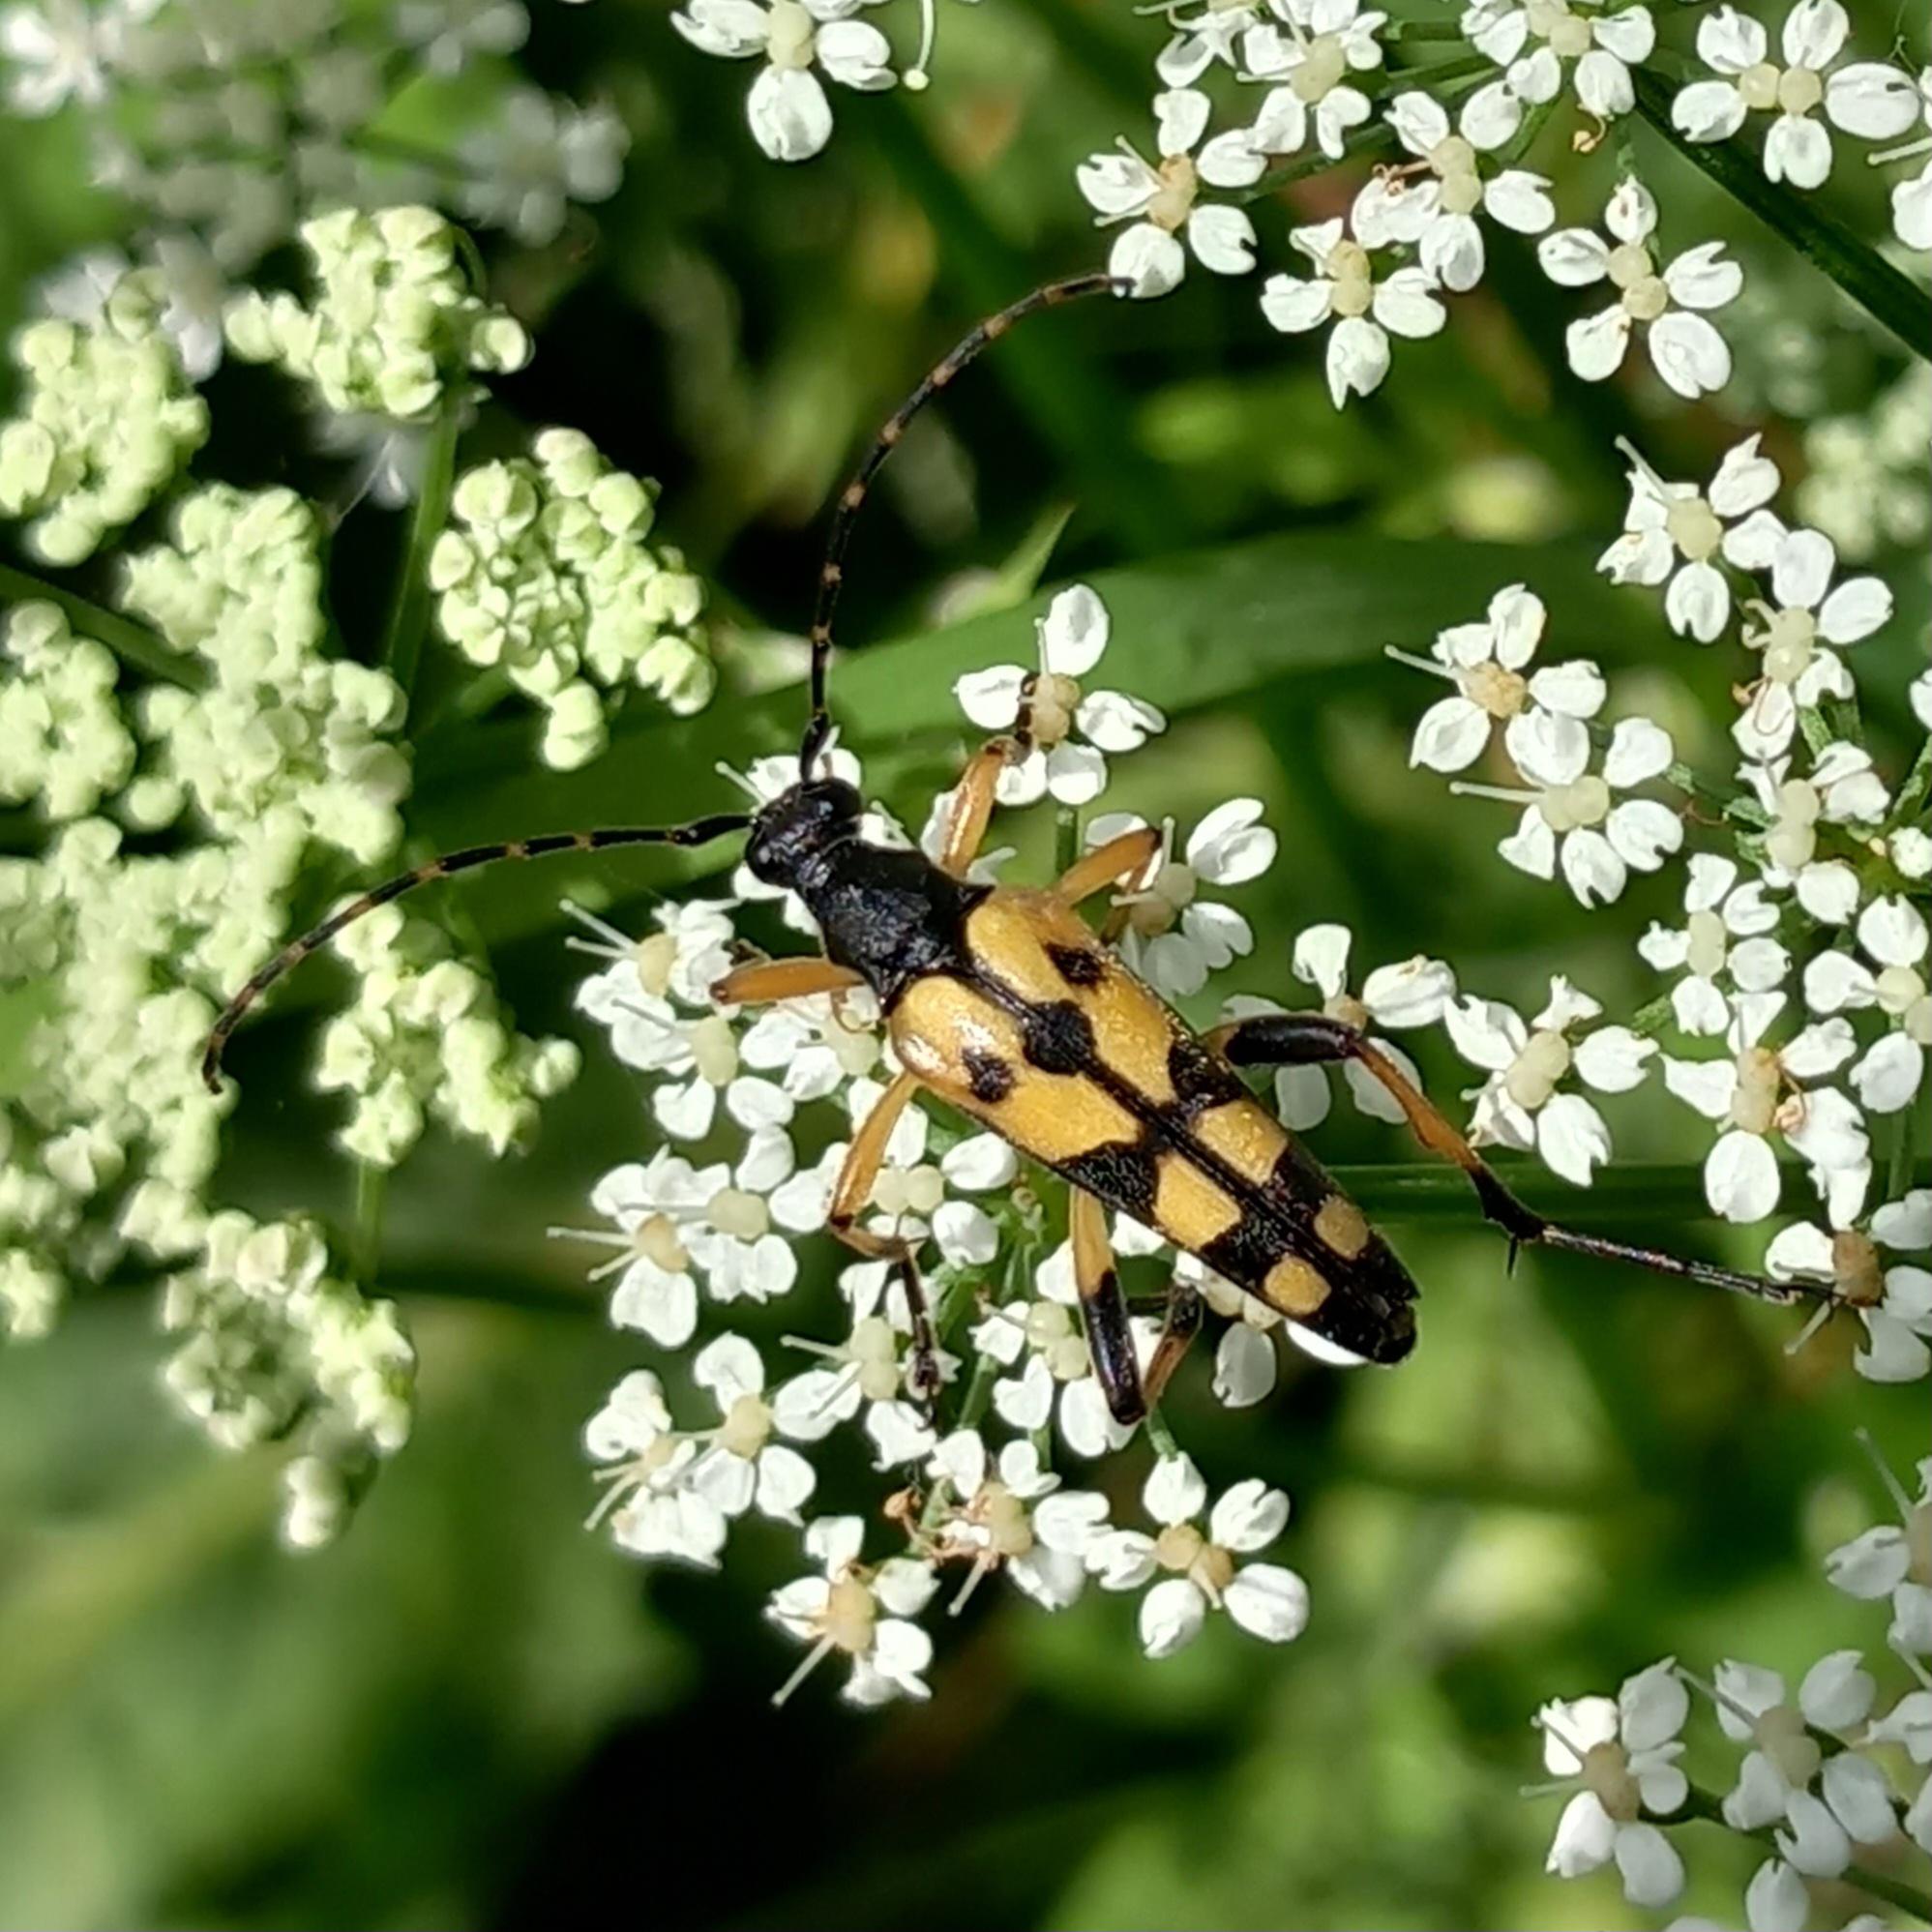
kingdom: Animalia
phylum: Arthropoda
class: Insecta
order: Coleoptera
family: Cerambycidae
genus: Rutpela
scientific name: Rutpela maculata
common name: Sydlig blomsterbuk
